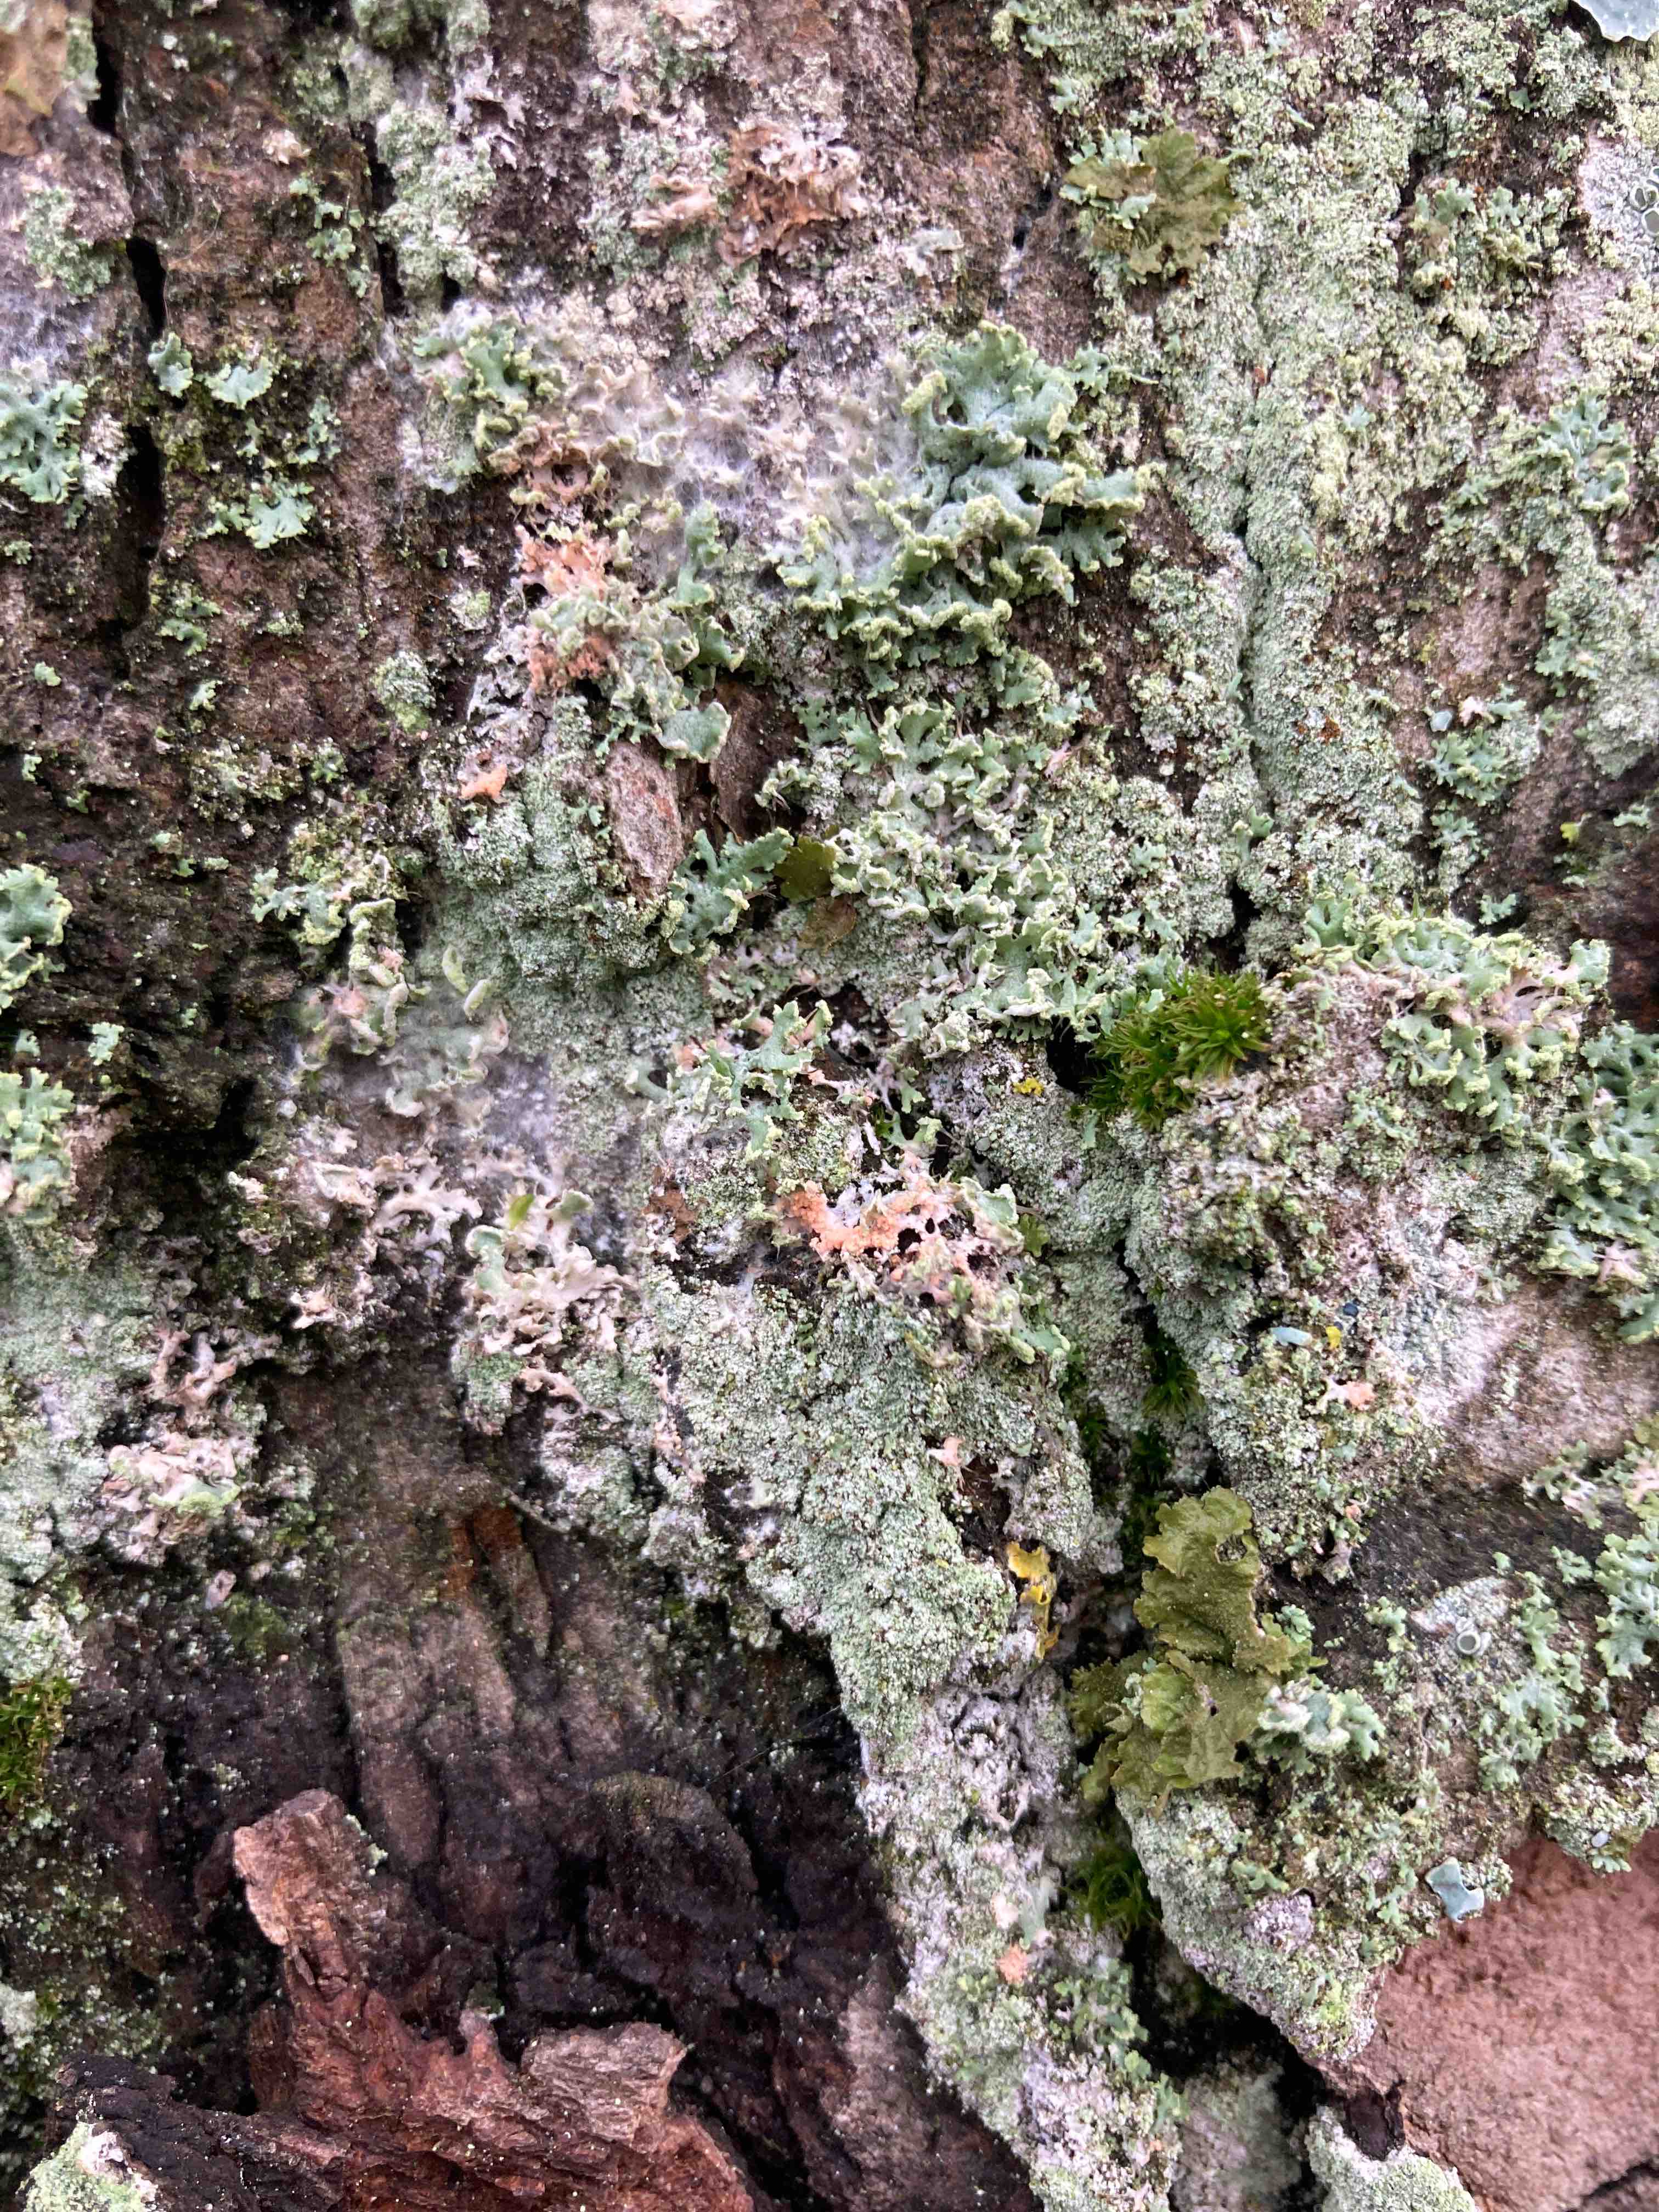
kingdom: Fungi
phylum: Basidiomycota
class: Agaricomycetes
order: Corticiales
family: Corticiaceae
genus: Erythricium
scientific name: Erythricium aurantiacum
